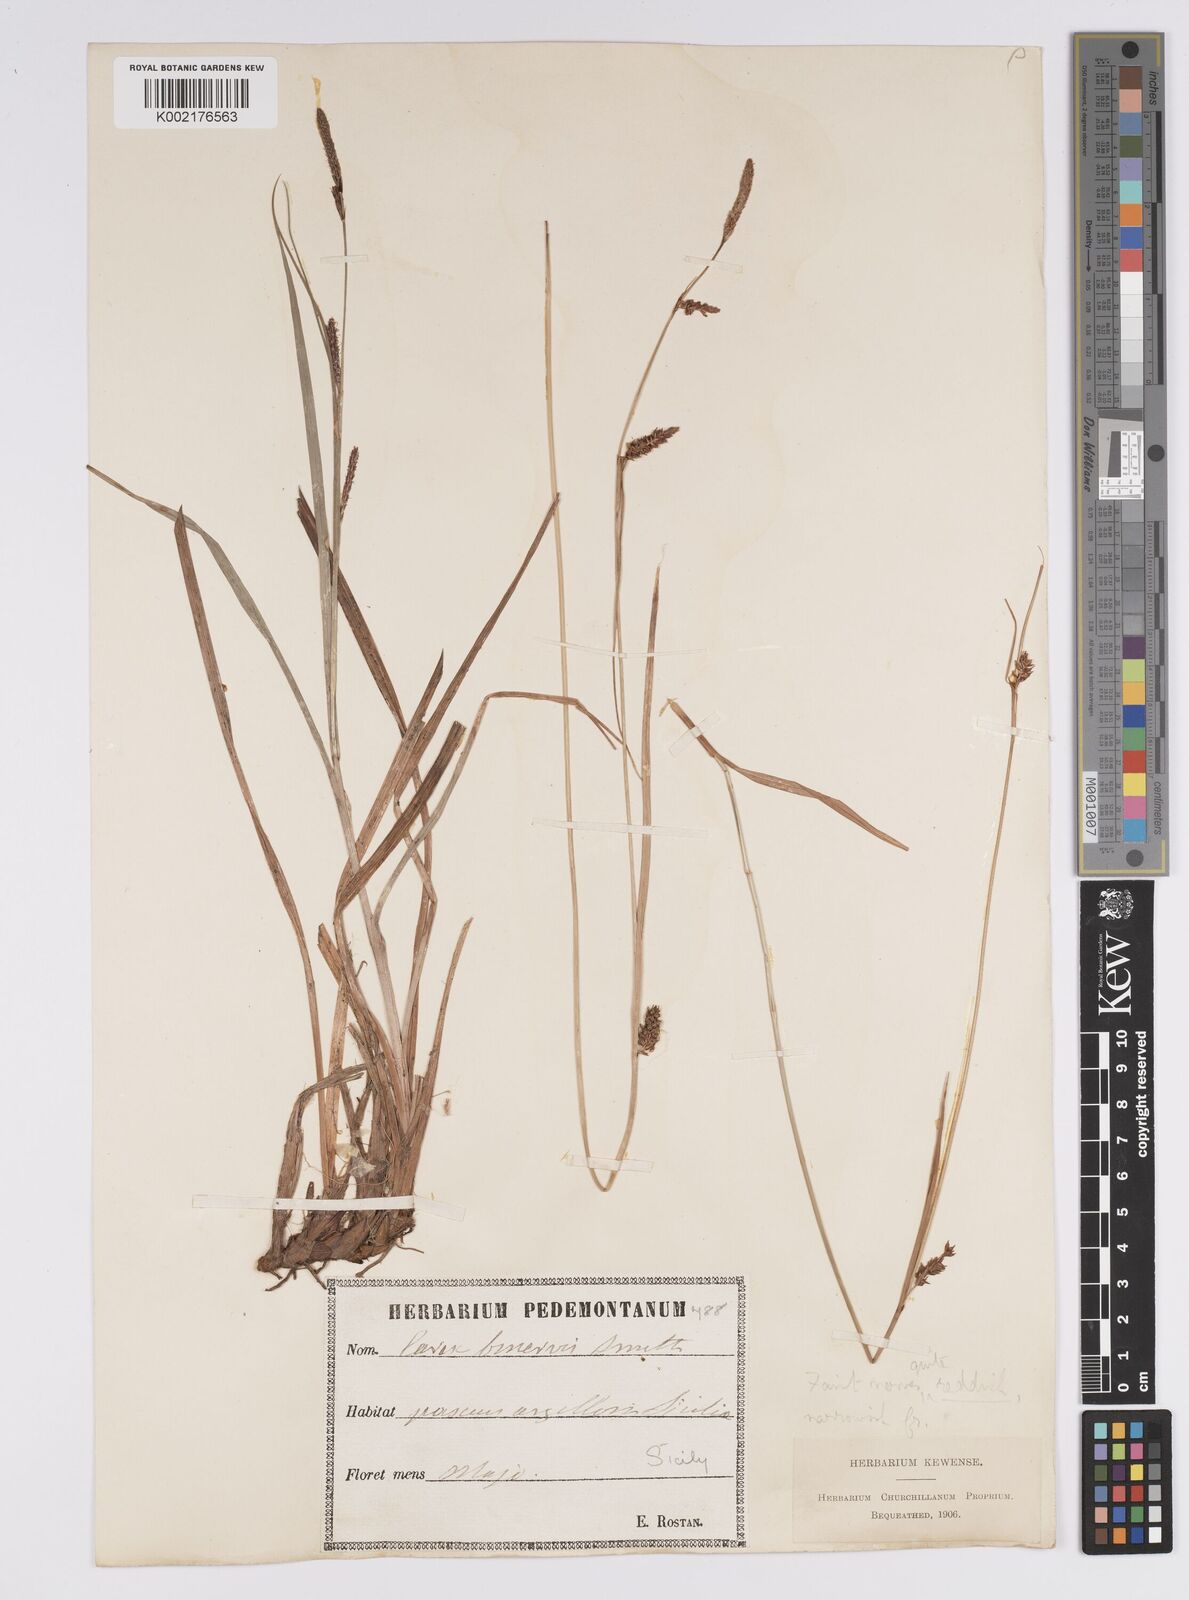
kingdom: Plantae
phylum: Tracheophyta
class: Liliopsida
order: Poales
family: Cyperaceae
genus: Carex
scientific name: Carex distans
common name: Distant sedge
